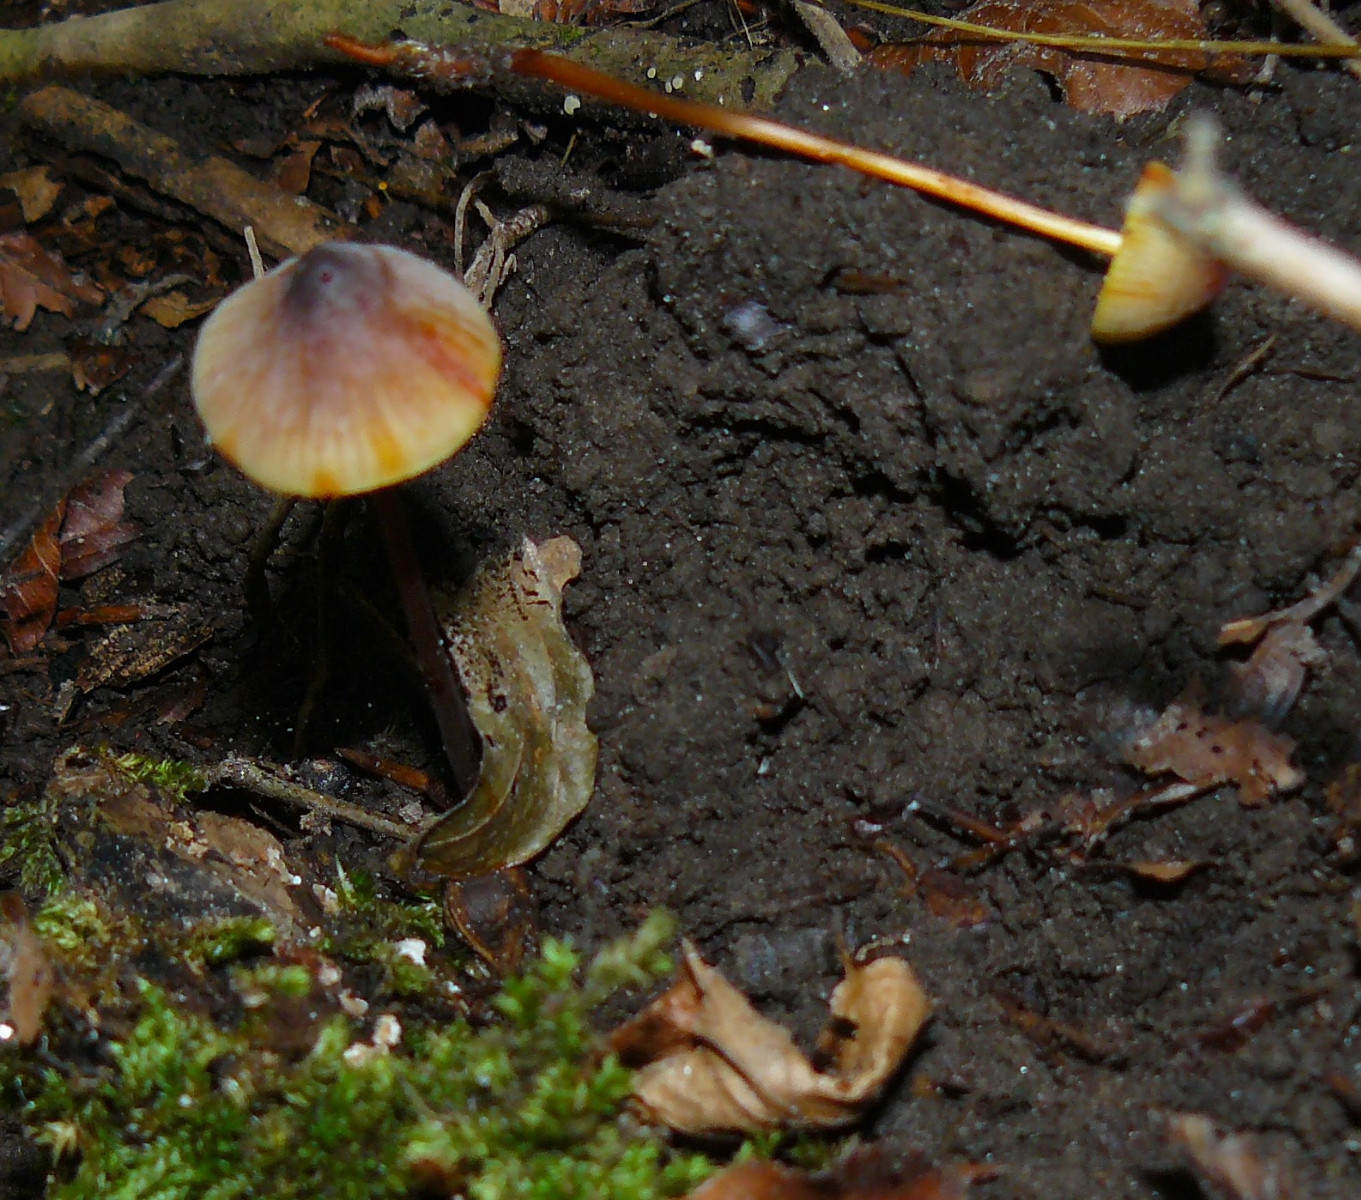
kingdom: Fungi
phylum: Basidiomycota
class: Agaricomycetes
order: Agaricales
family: Mycenaceae
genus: Mycena
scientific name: Mycena crocata
